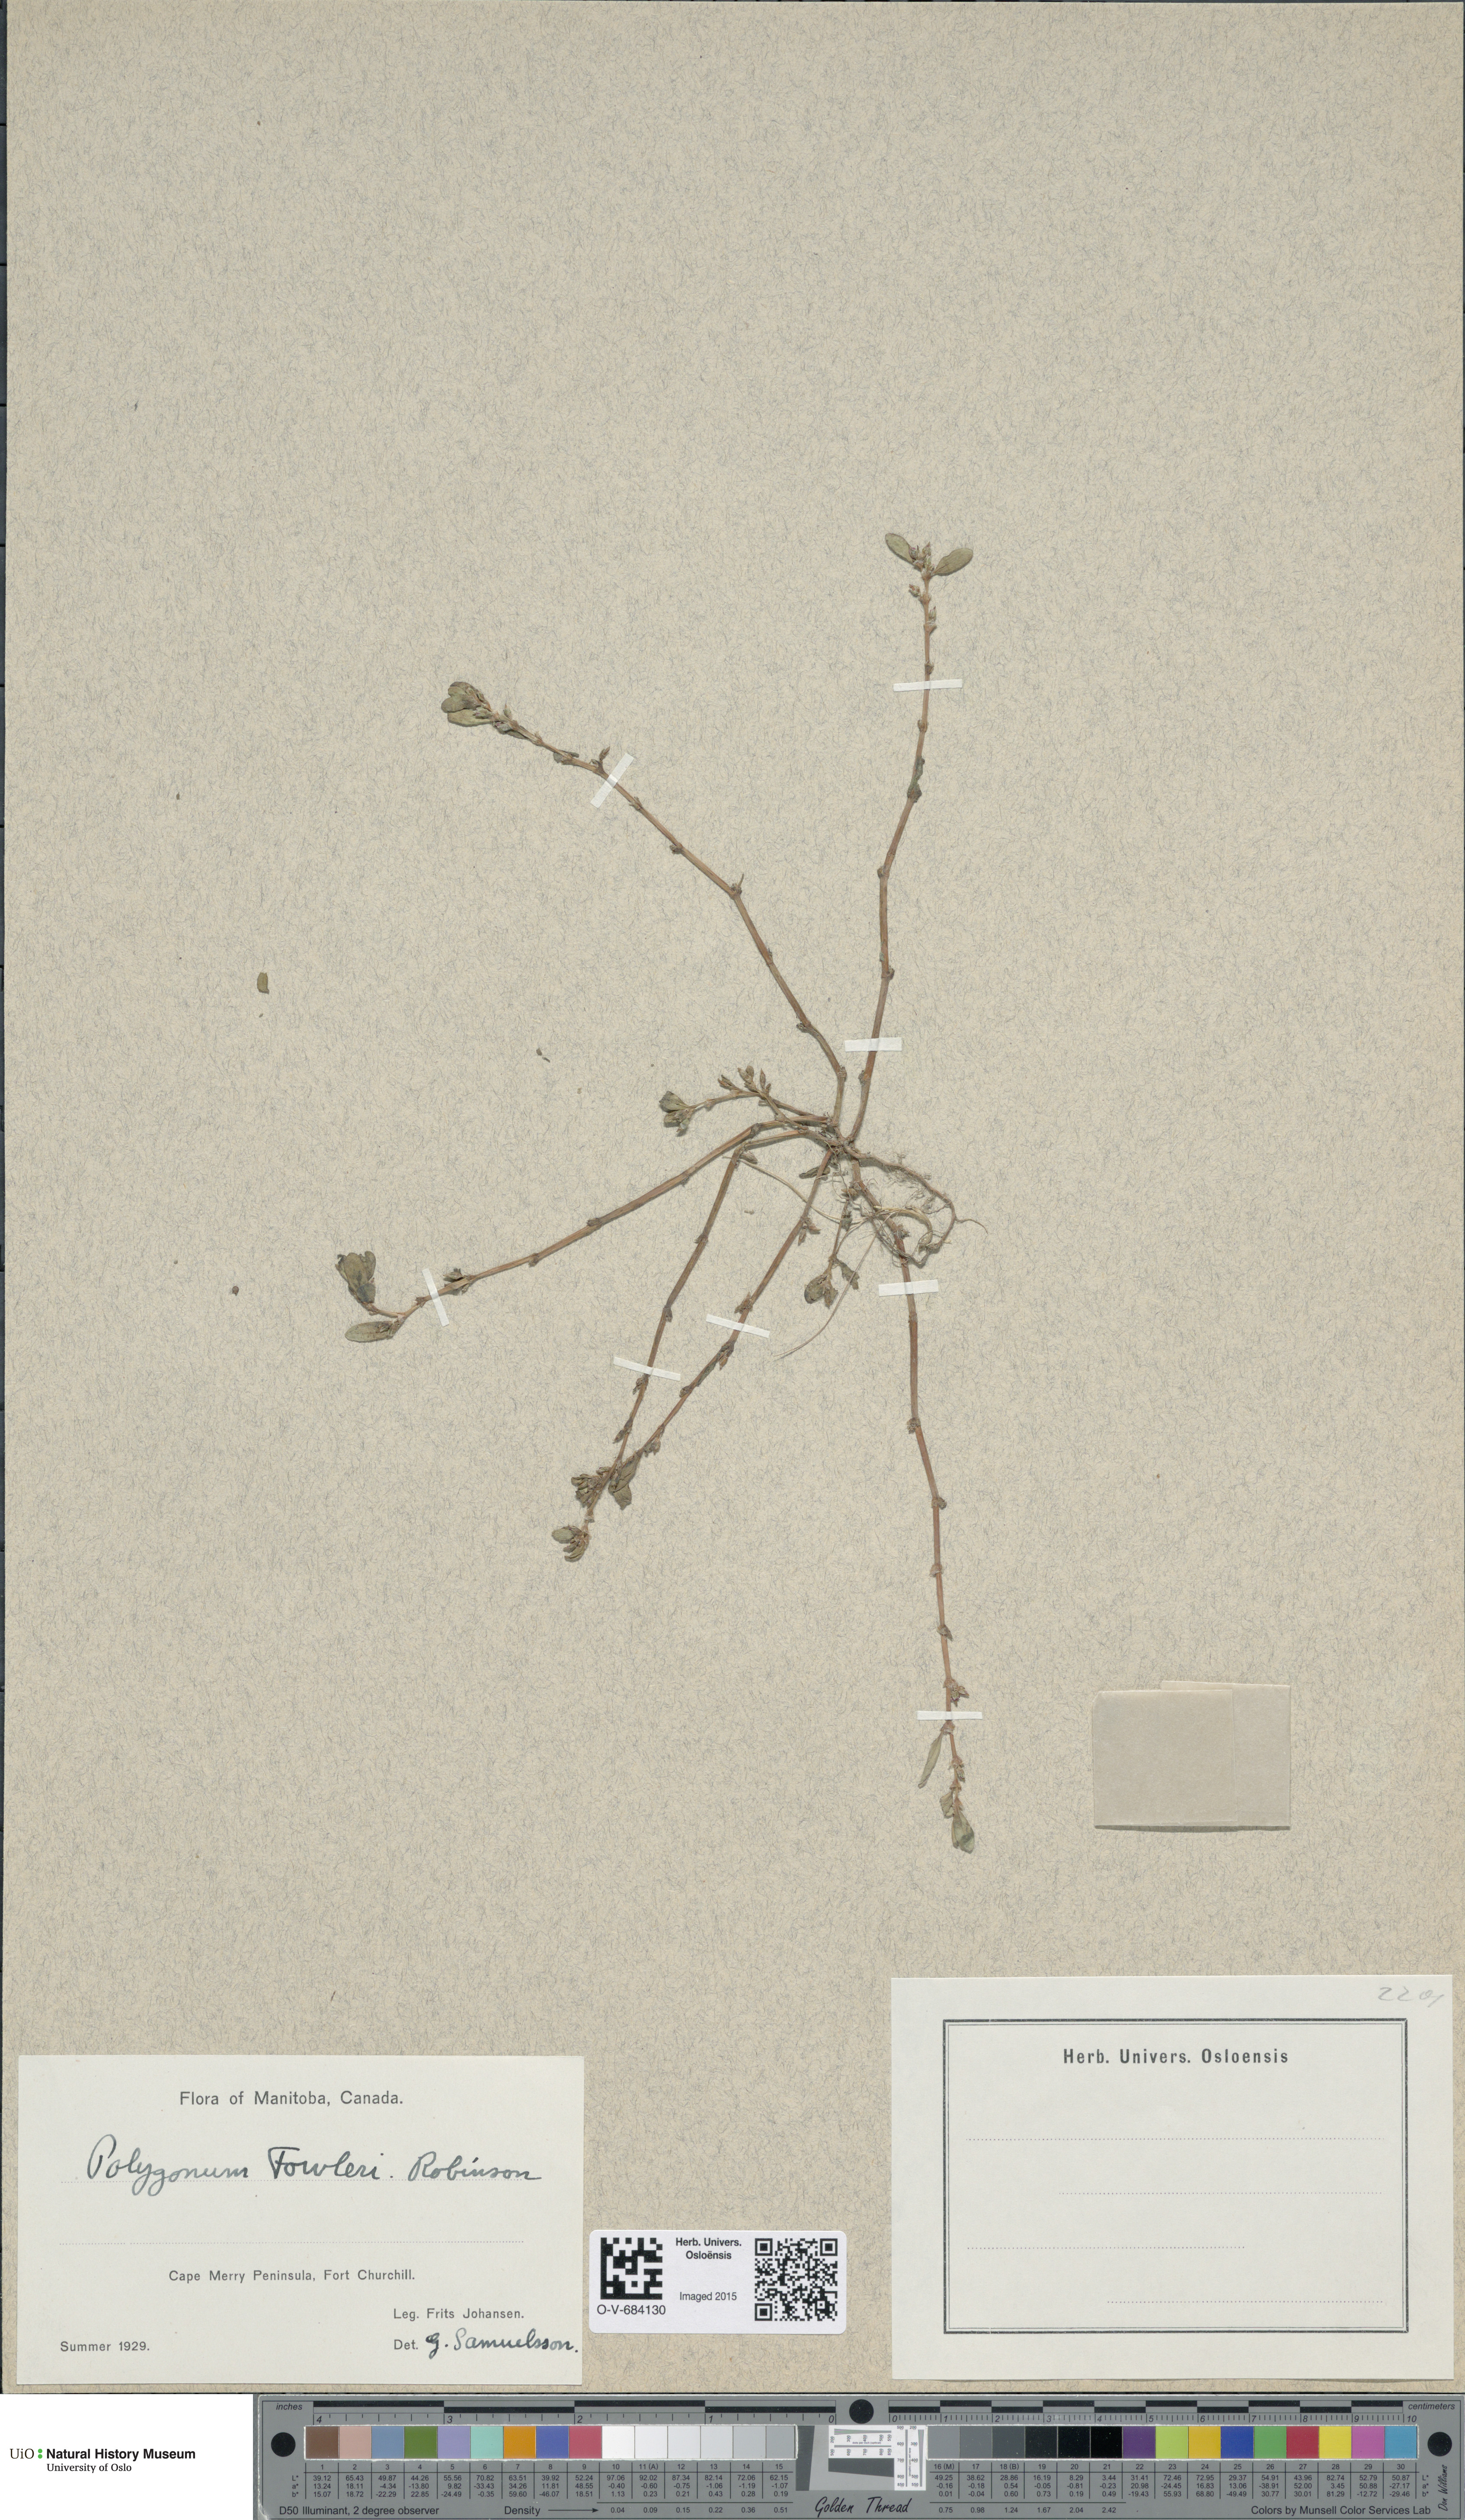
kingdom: Plantae
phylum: Tracheophyta
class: Magnoliopsida
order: Caryophyllales
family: Polygonaceae
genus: Polygonum
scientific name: Polygonum fowleri
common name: Fowler's knotweed
